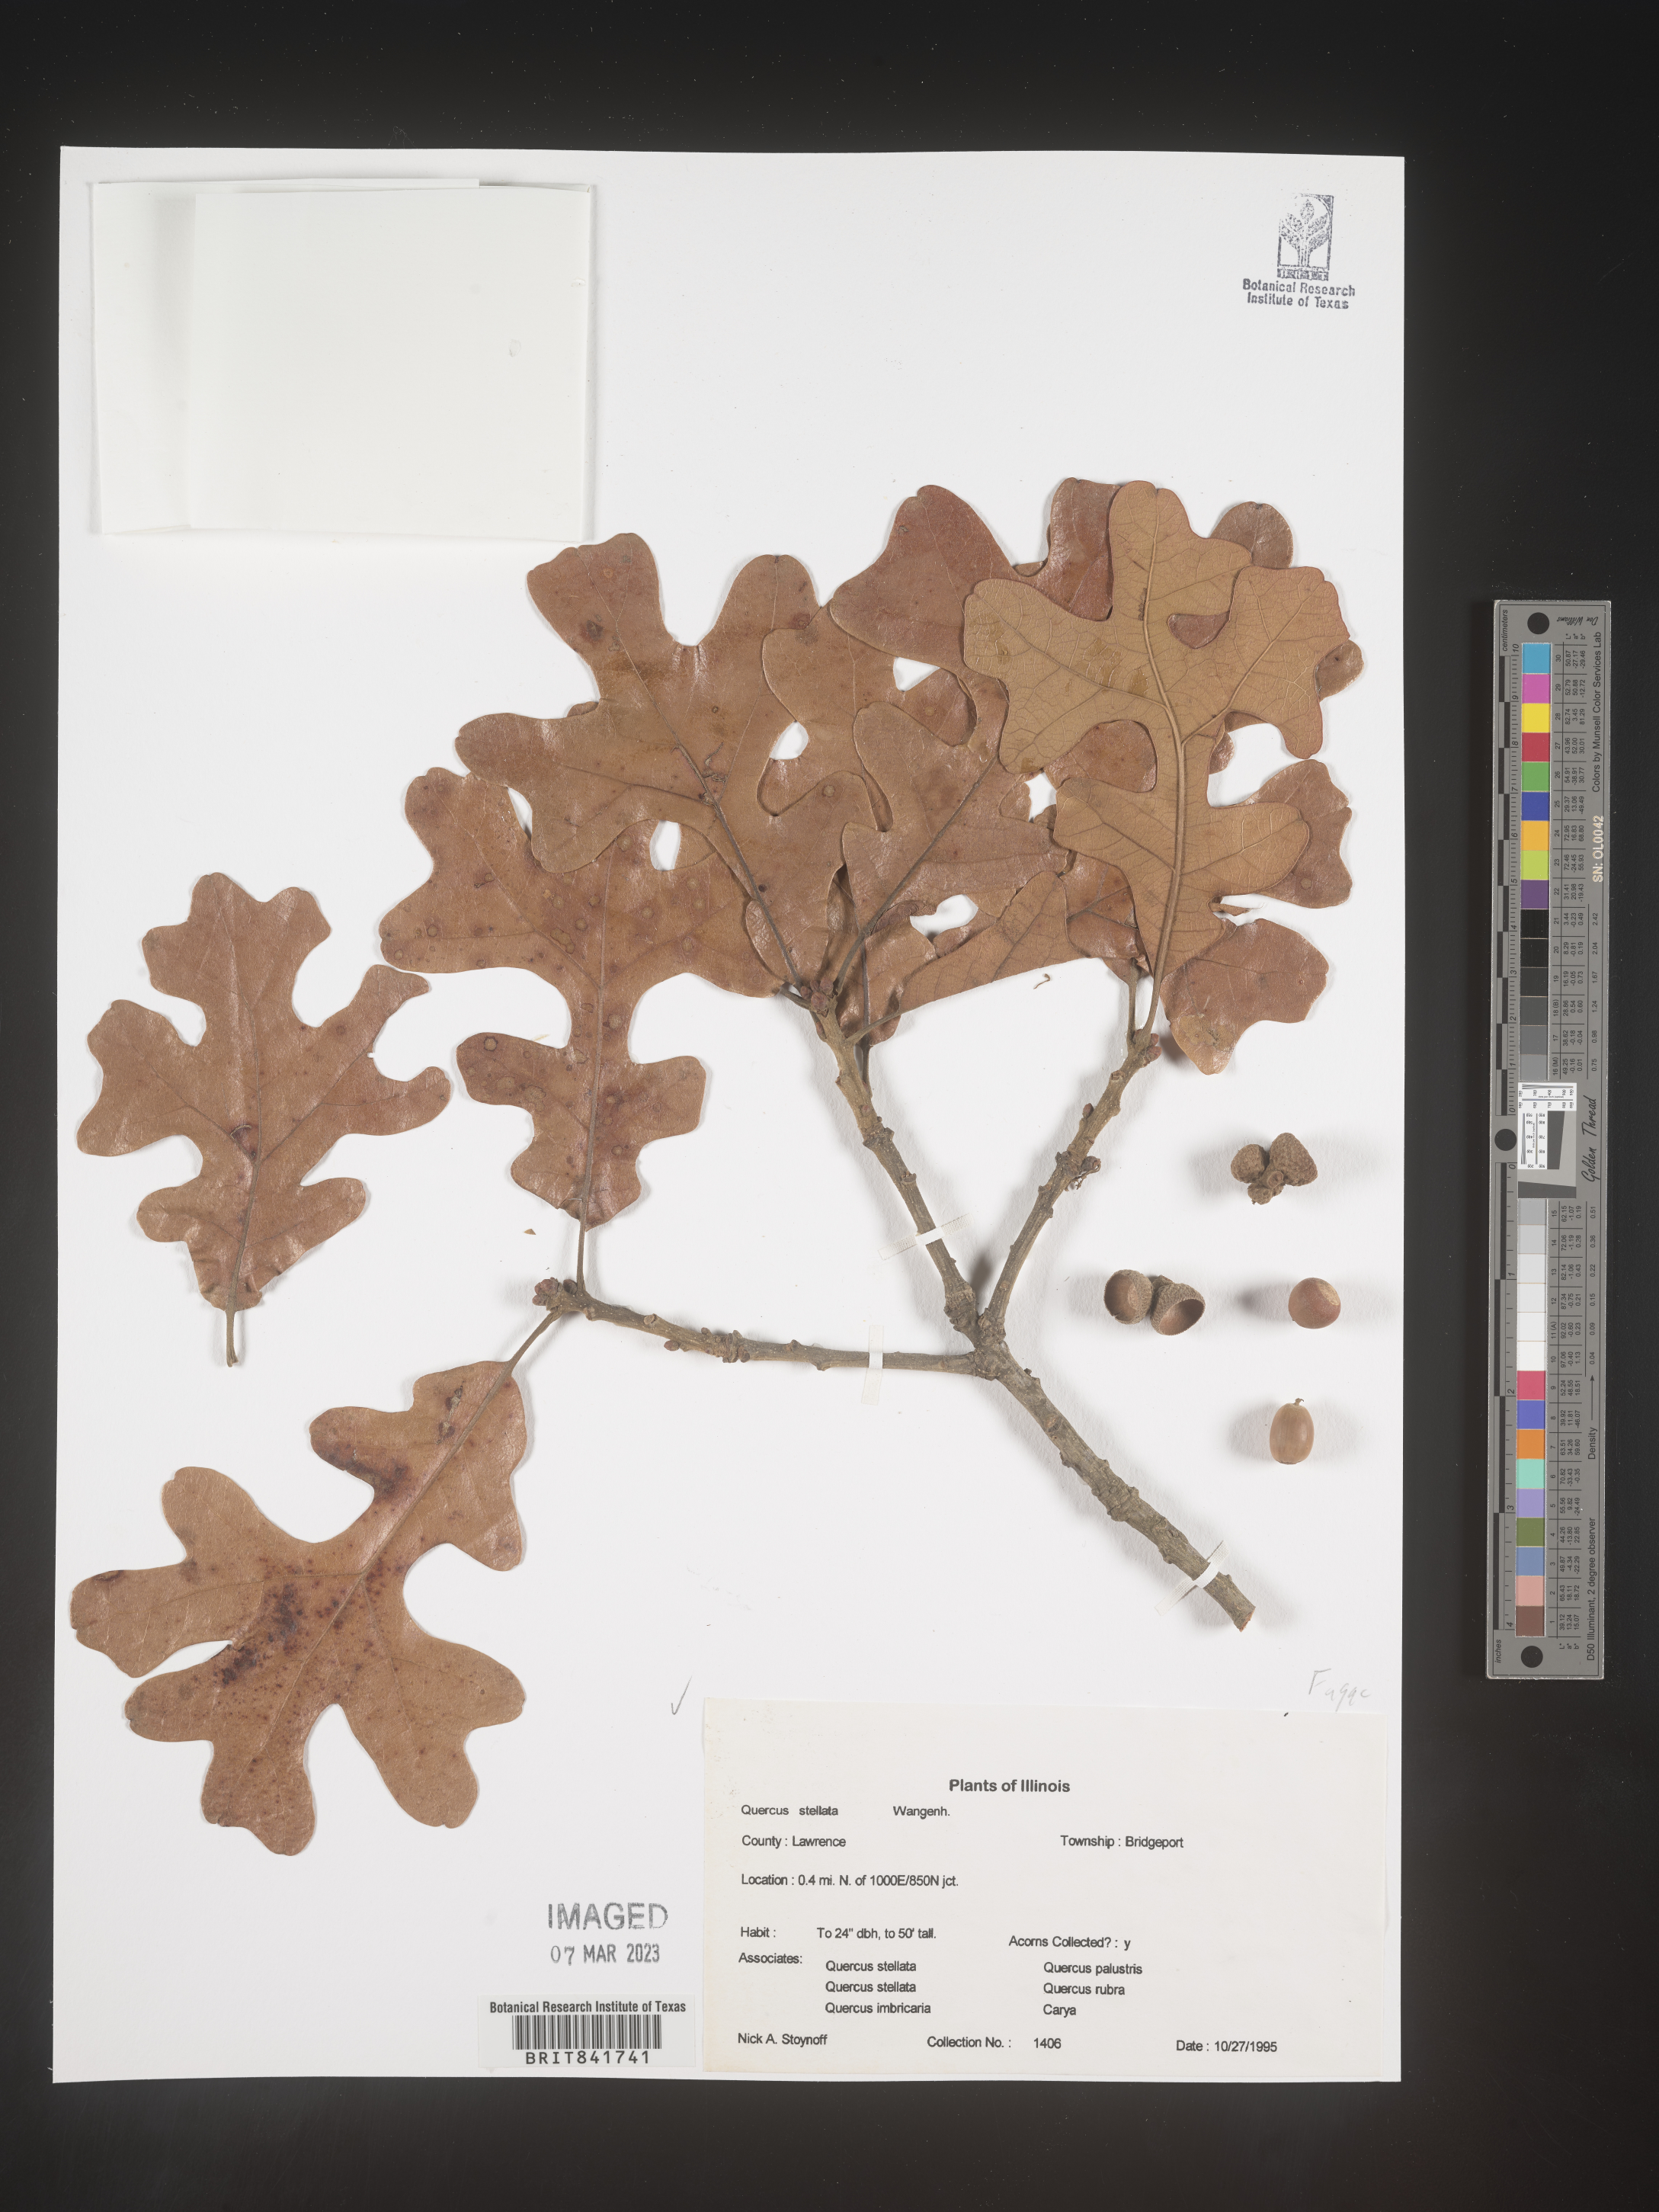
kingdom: Plantae
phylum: Tracheophyta
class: Magnoliopsida
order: Fagales
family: Fagaceae
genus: Quercus
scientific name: Quercus stellata
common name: Post oak
